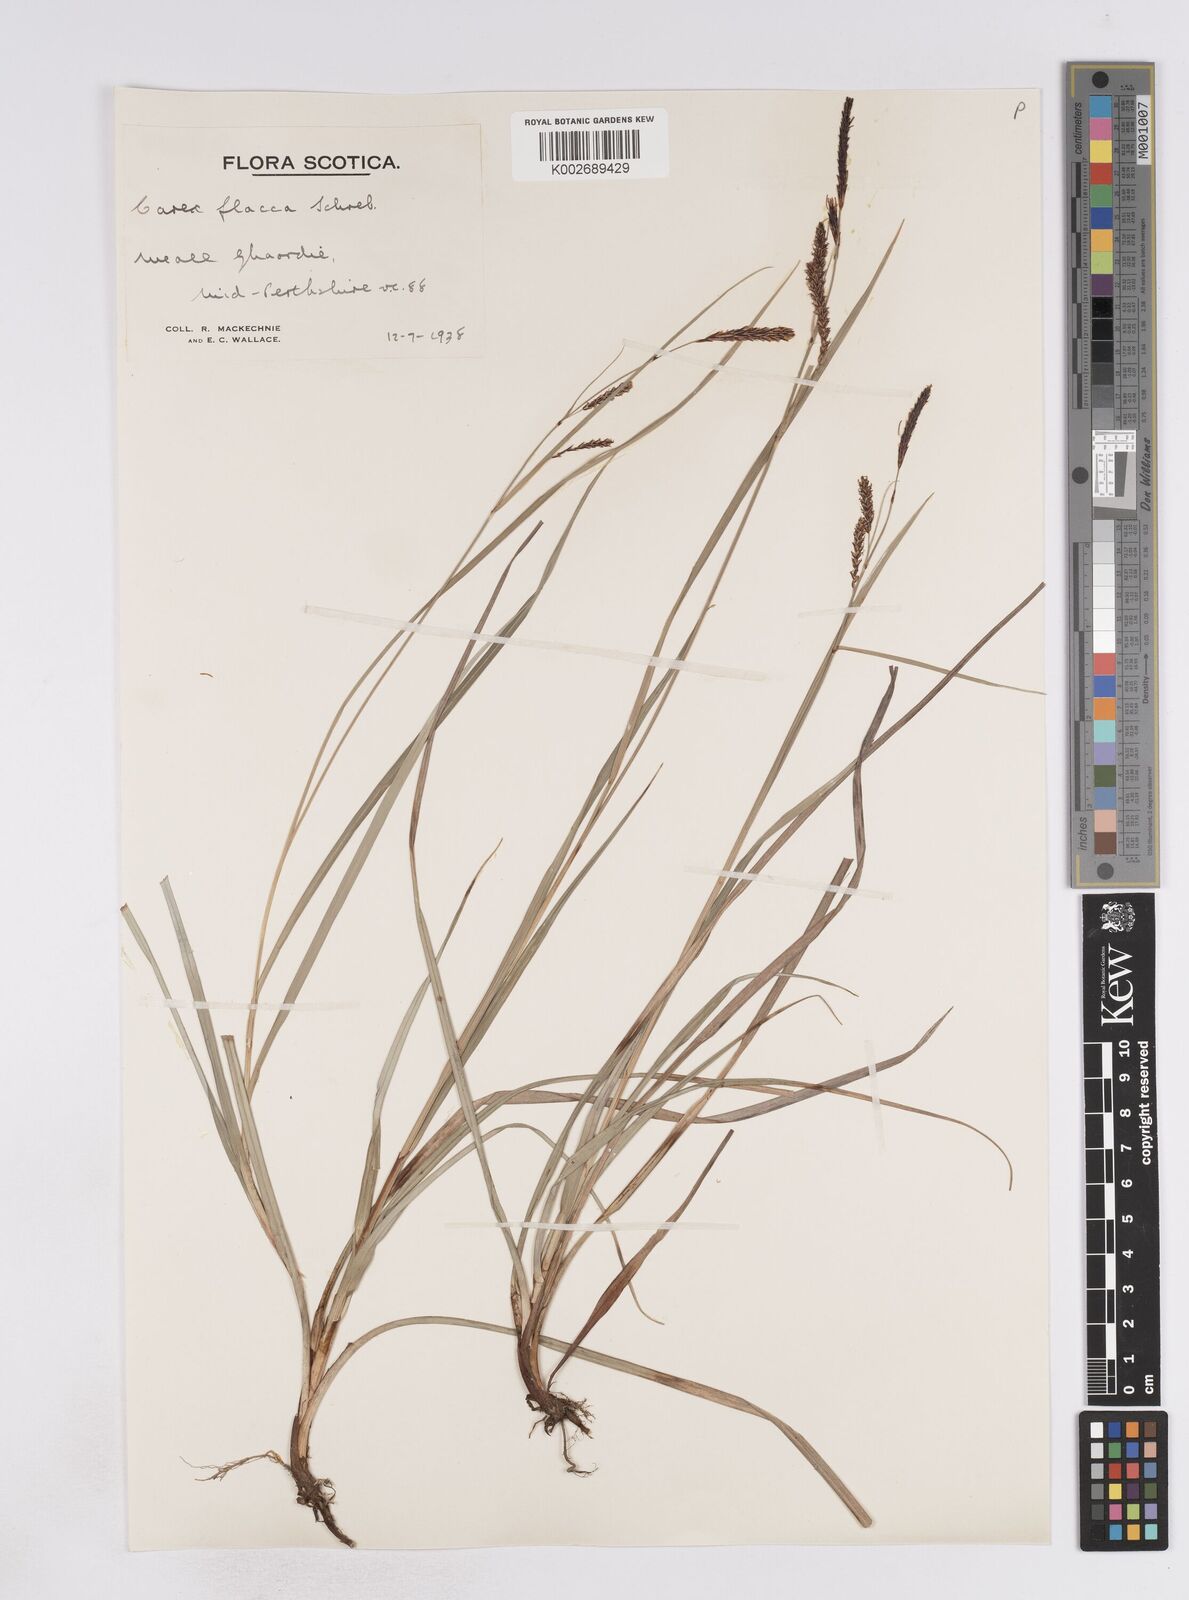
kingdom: Plantae
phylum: Tracheophyta
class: Liliopsida
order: Poales
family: Cyperaceae
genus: Carex
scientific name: Carex flacca
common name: Glaucous sedge
